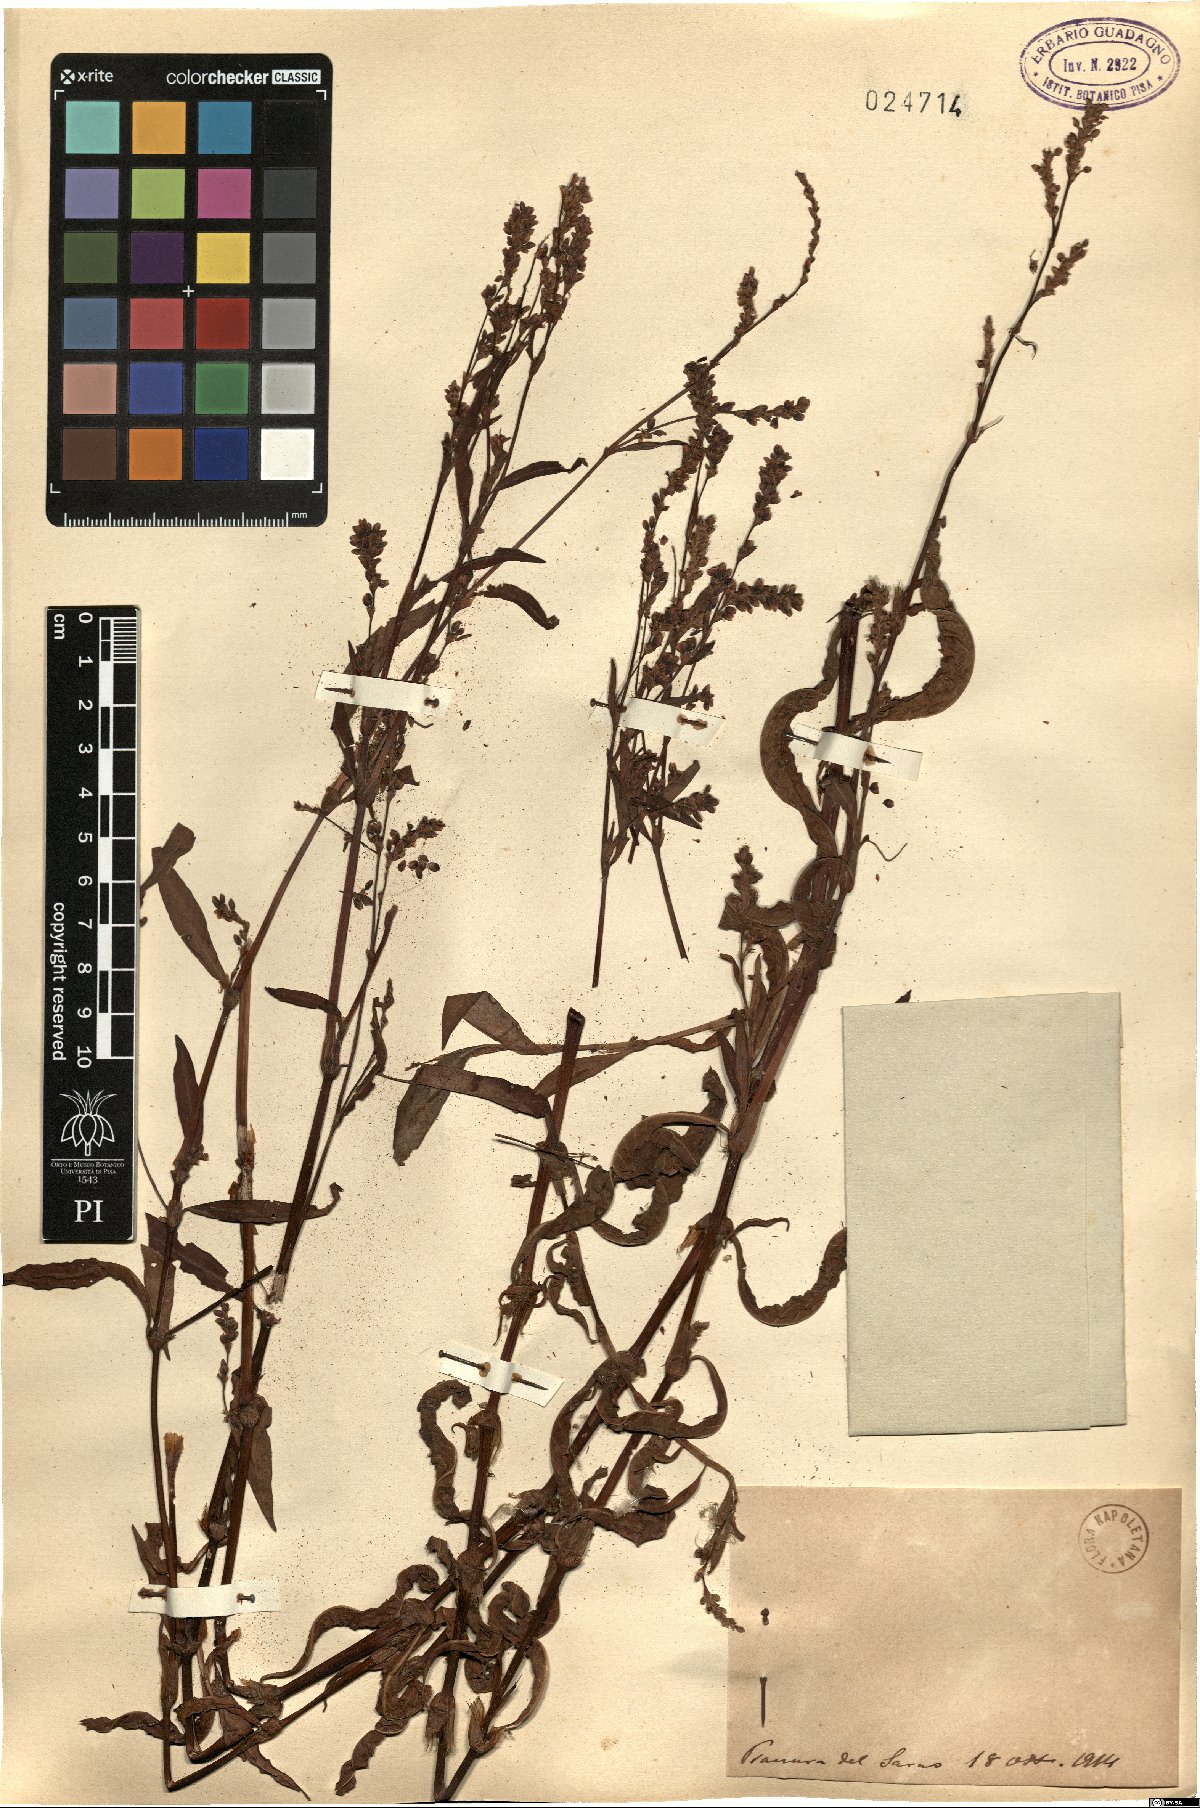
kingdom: Plantae
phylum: Tracheophyta
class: Magnoliopsida
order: Caryophyllales
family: Polygonaceae
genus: Polygonum
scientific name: Polygonum
